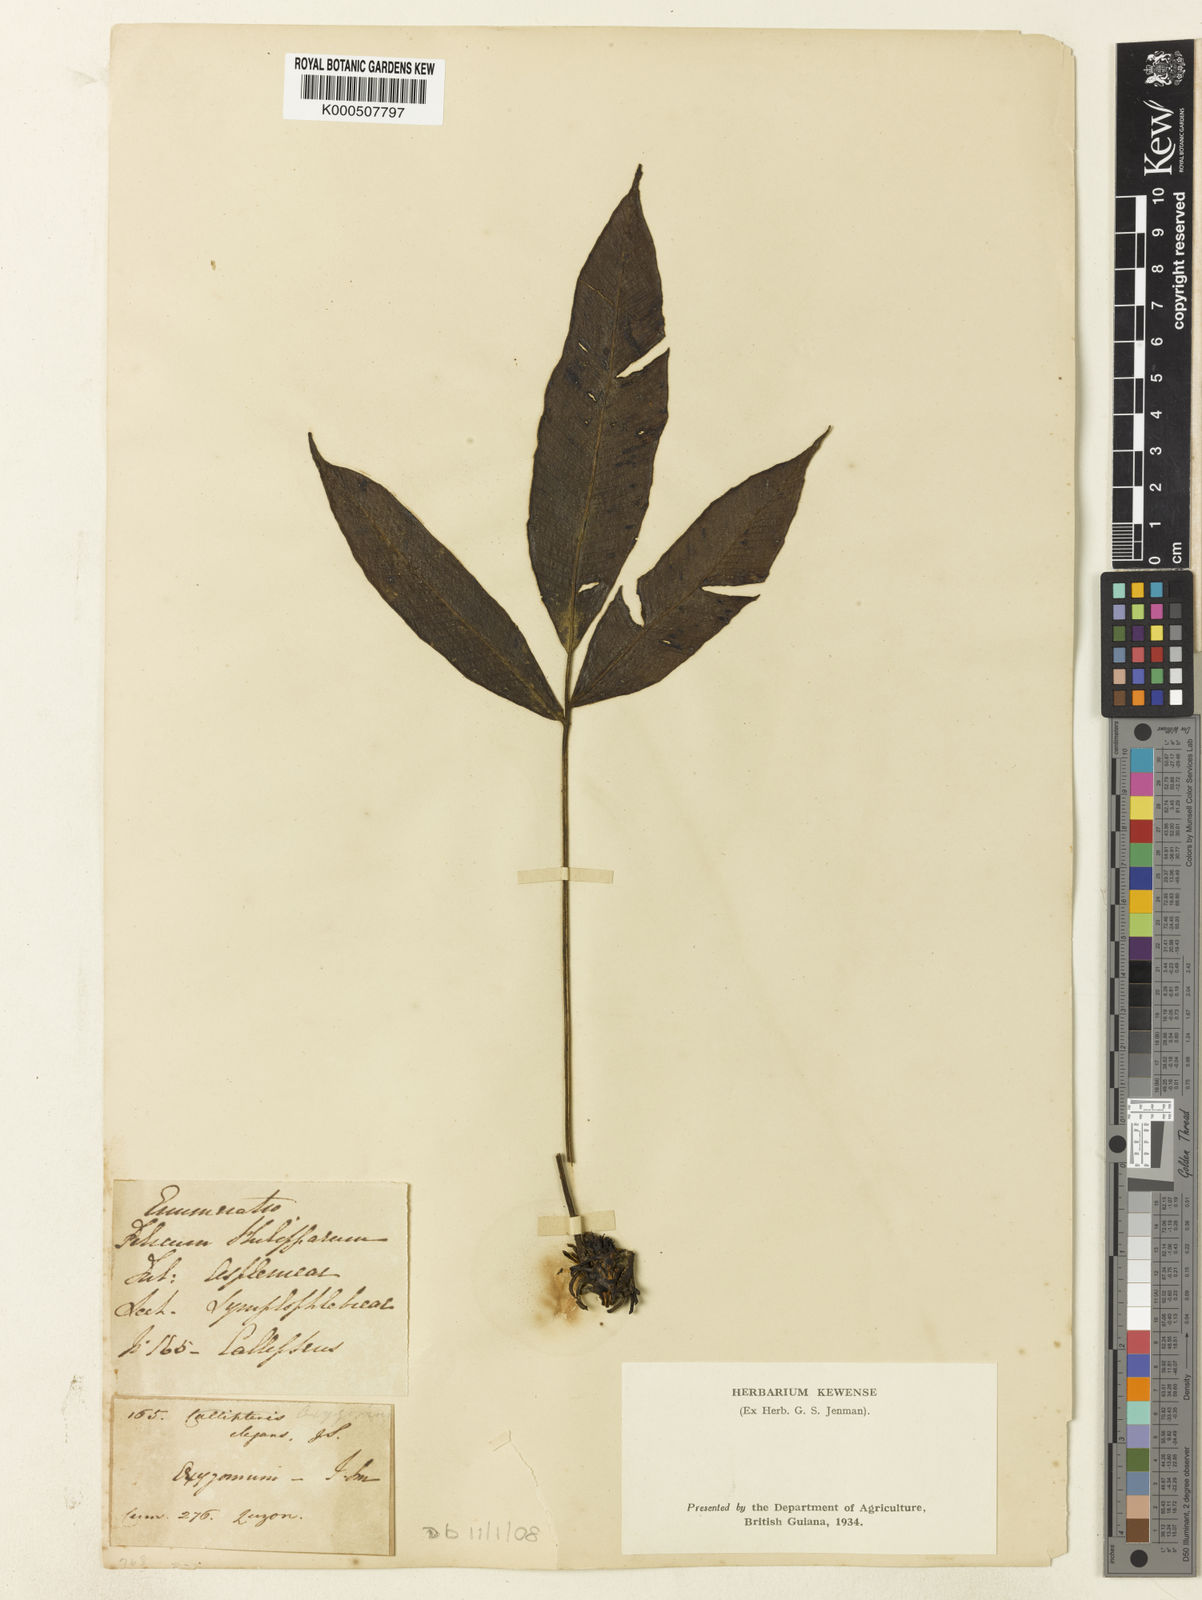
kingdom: Plantae
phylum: Tracheophyta
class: Polypodiopsida
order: Polypodiales
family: Athyriaceae
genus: Diplazium
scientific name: Diplazium
